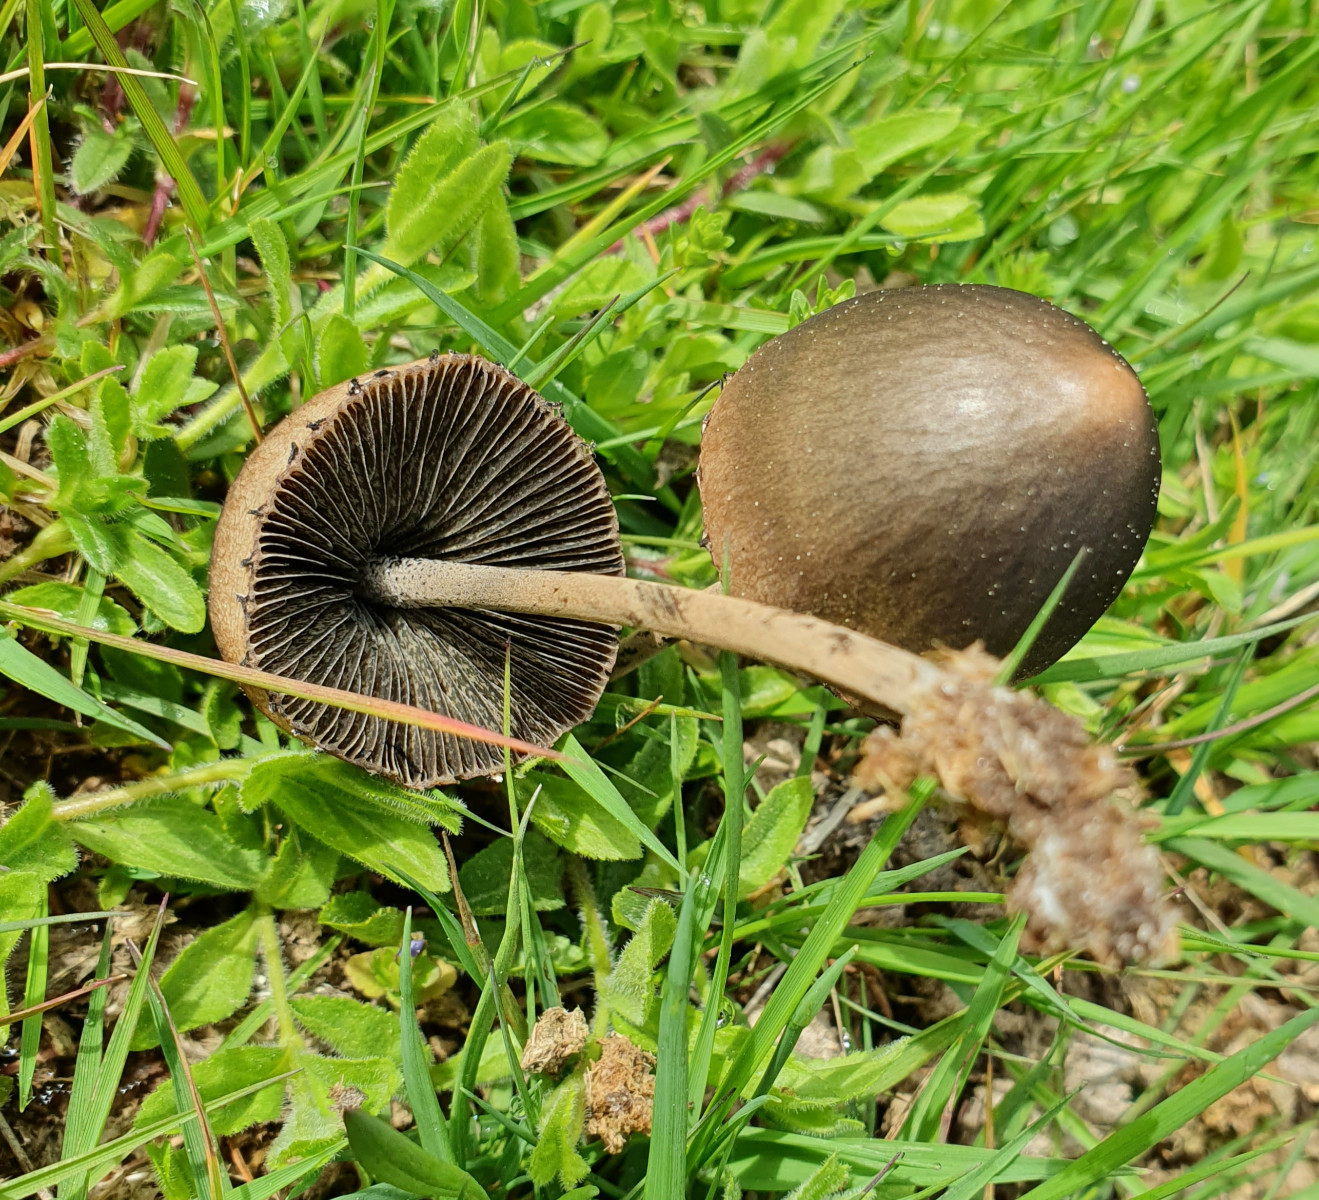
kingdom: Fungi
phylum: Basidiomycota
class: Agaricomycetes
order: Agaricales
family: Bolbitiaceae
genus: Panaeolus
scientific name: Panaeolus papilionaceus
